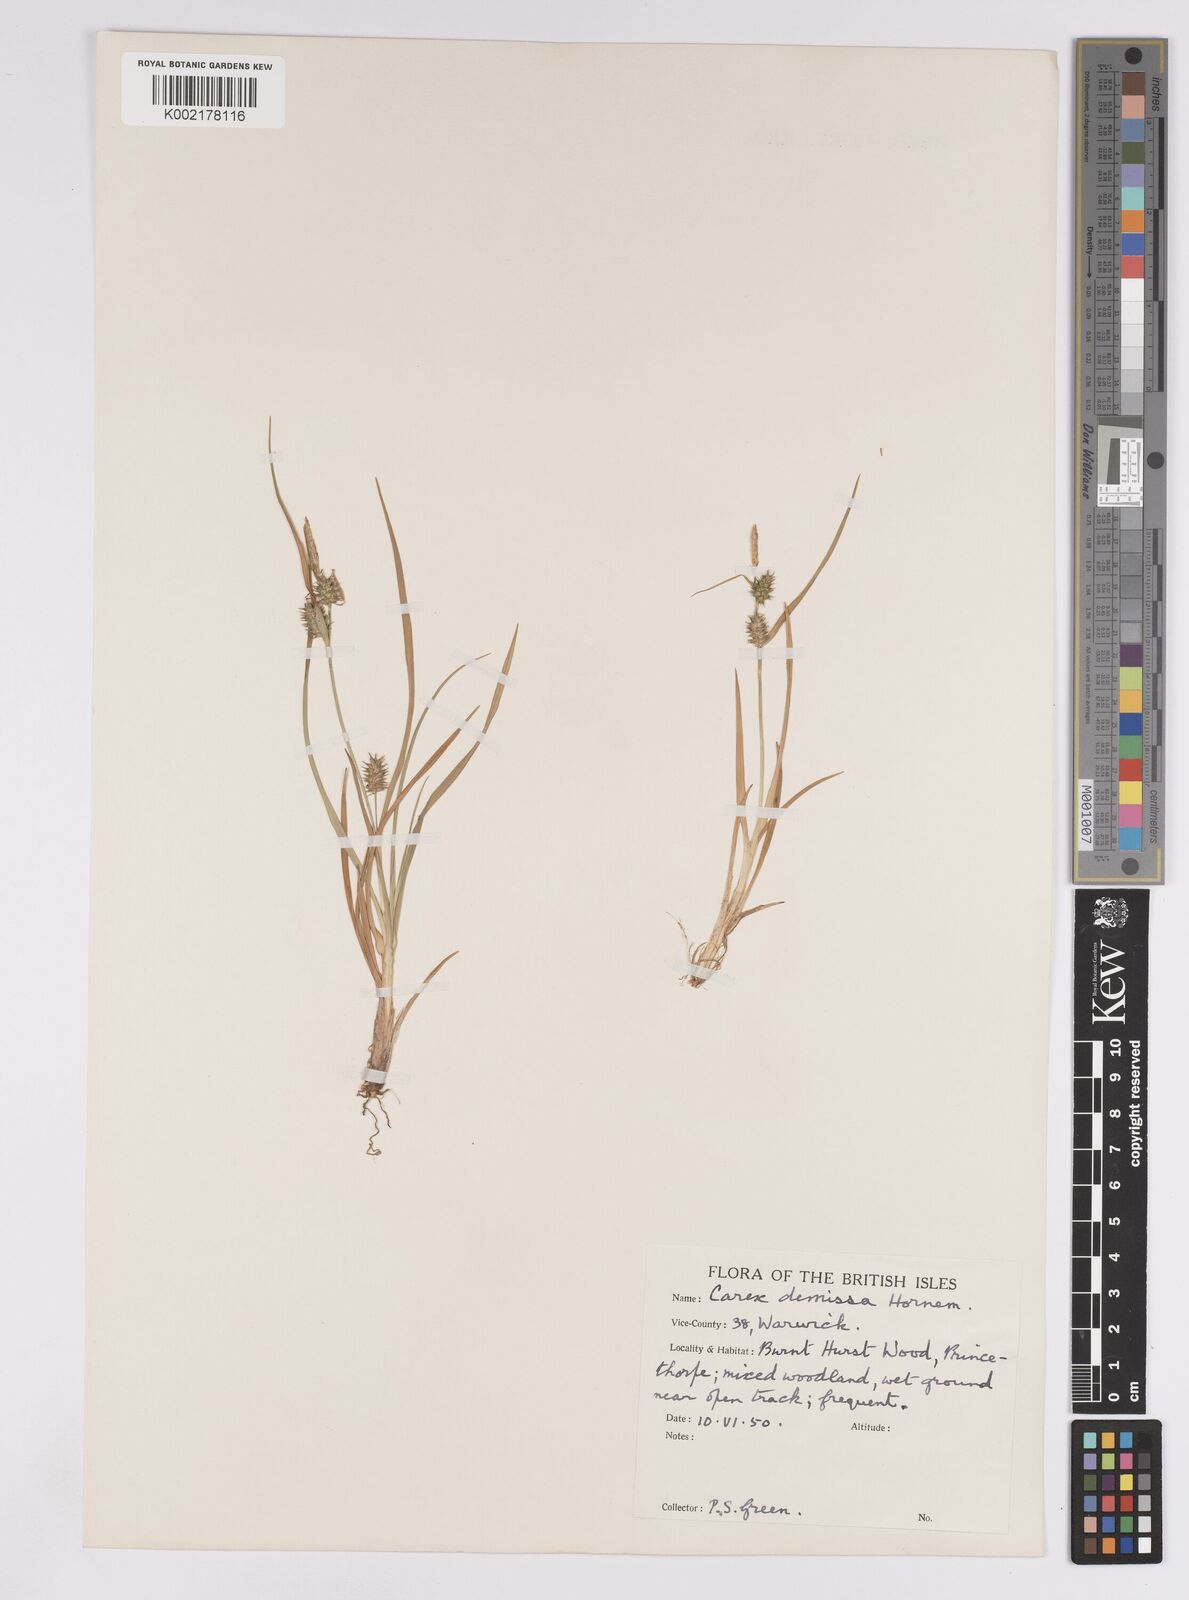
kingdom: Plantae
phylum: Tracheophyta
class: Liliopsida
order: Poales
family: Cyperaceae
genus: Carex
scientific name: Carex demissa
